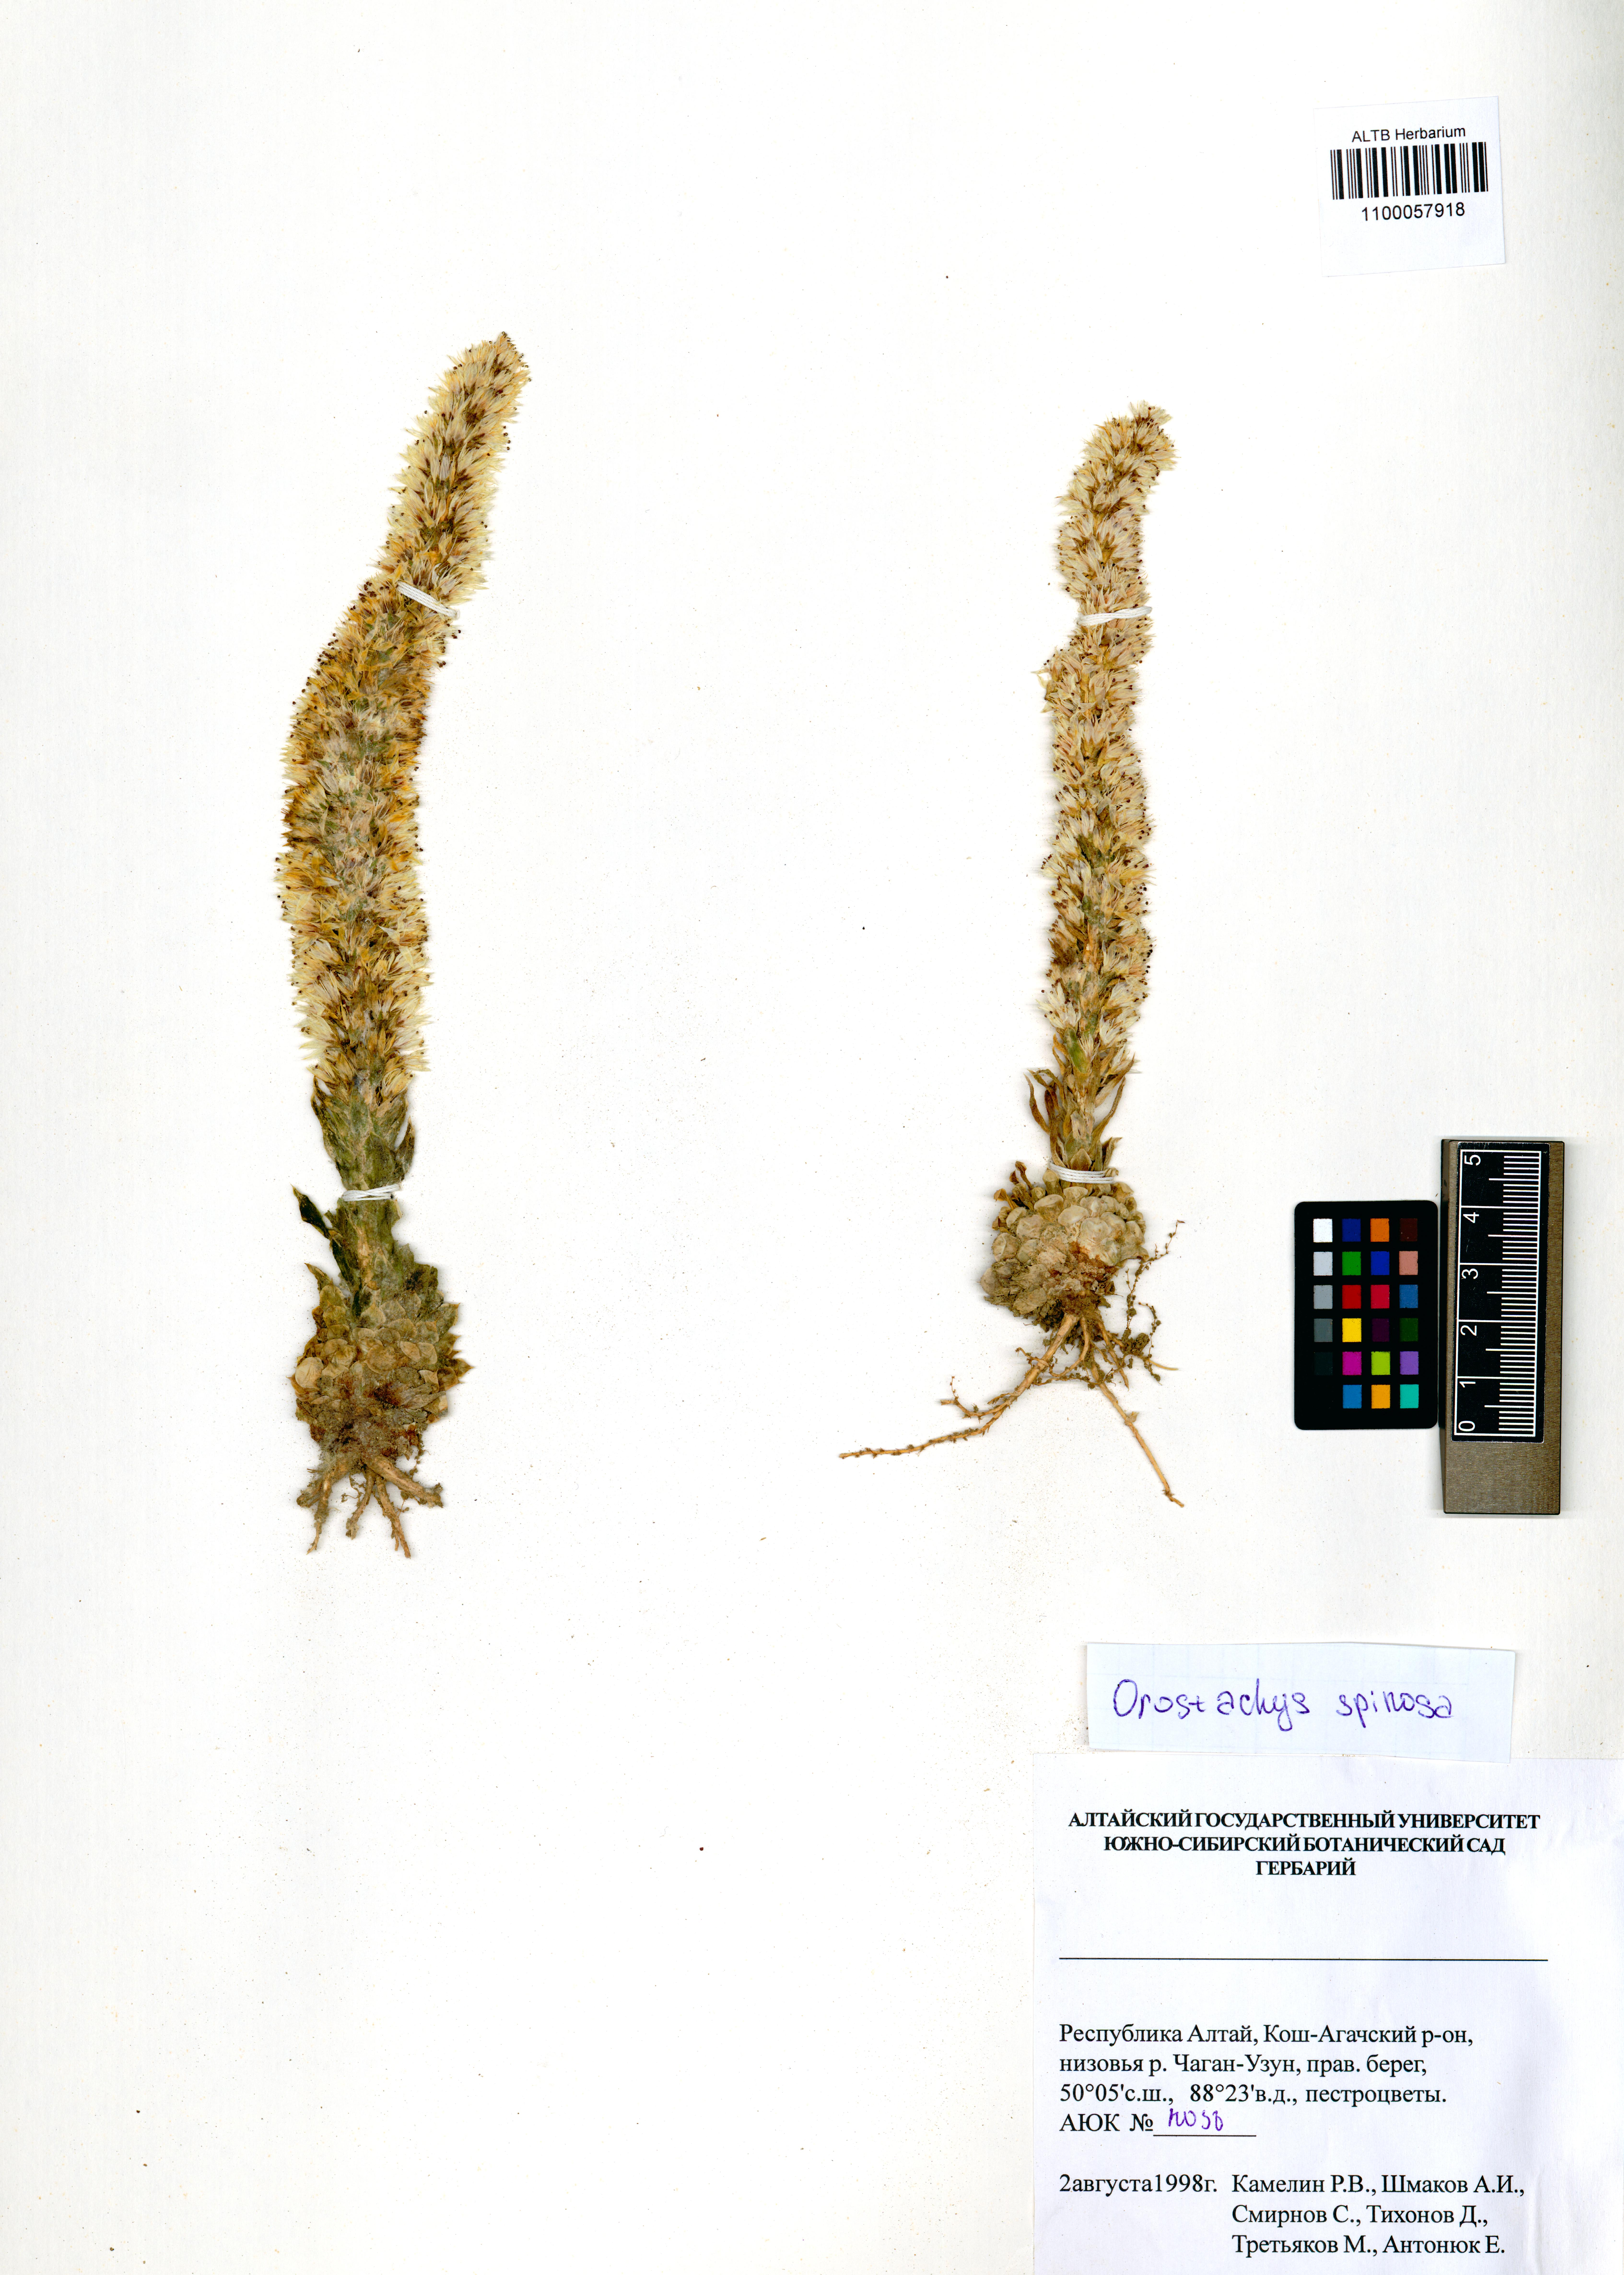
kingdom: Plantae
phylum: Tracheophyta
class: Magnoliopsida
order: Saxifragales
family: Crassulaceae
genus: Orostachys
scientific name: Orostachys spinosa
